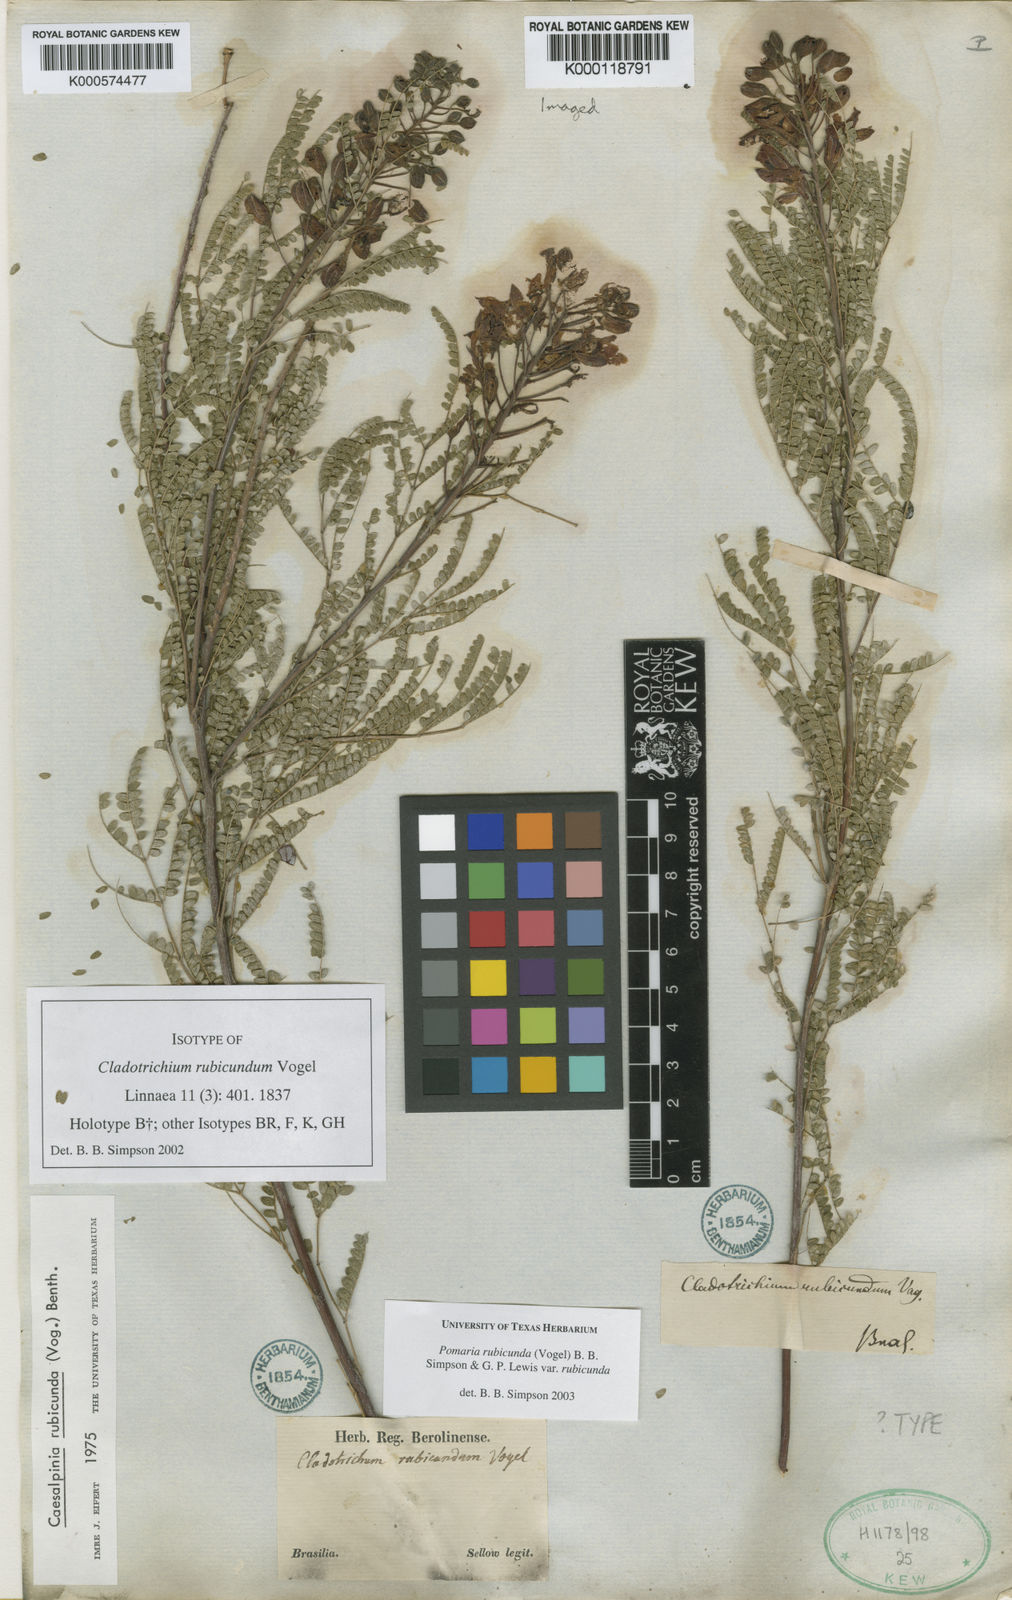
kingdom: Plantae
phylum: Tracheophyta
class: Magnoliopsida
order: Fabales
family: Fabaceae
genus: Pomaria
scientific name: Pomaria rubicunda
